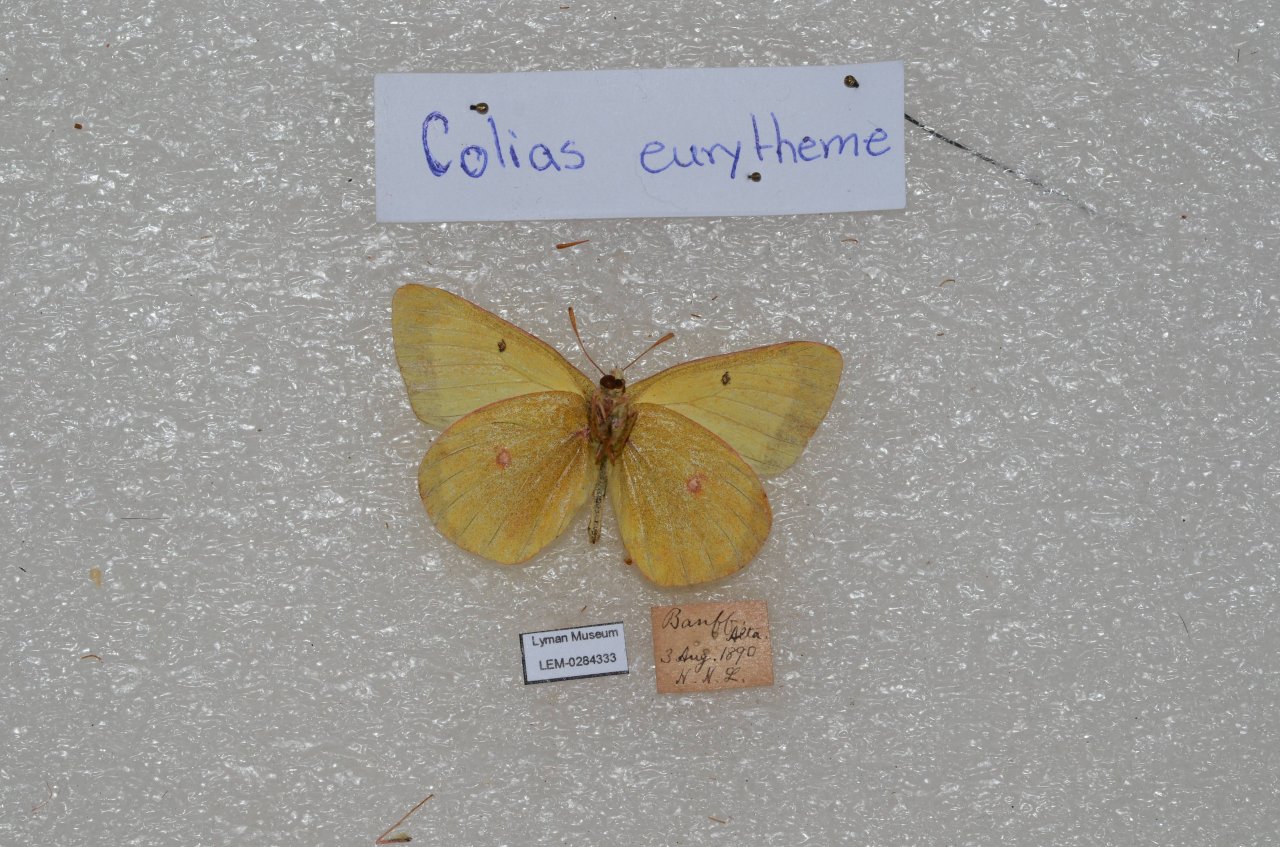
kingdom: Animalia
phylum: Arthropoda
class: Insecta
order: Lepidoptera
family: Pieridae
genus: Colias
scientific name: Colias eurytheme
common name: Orange Sulphur
